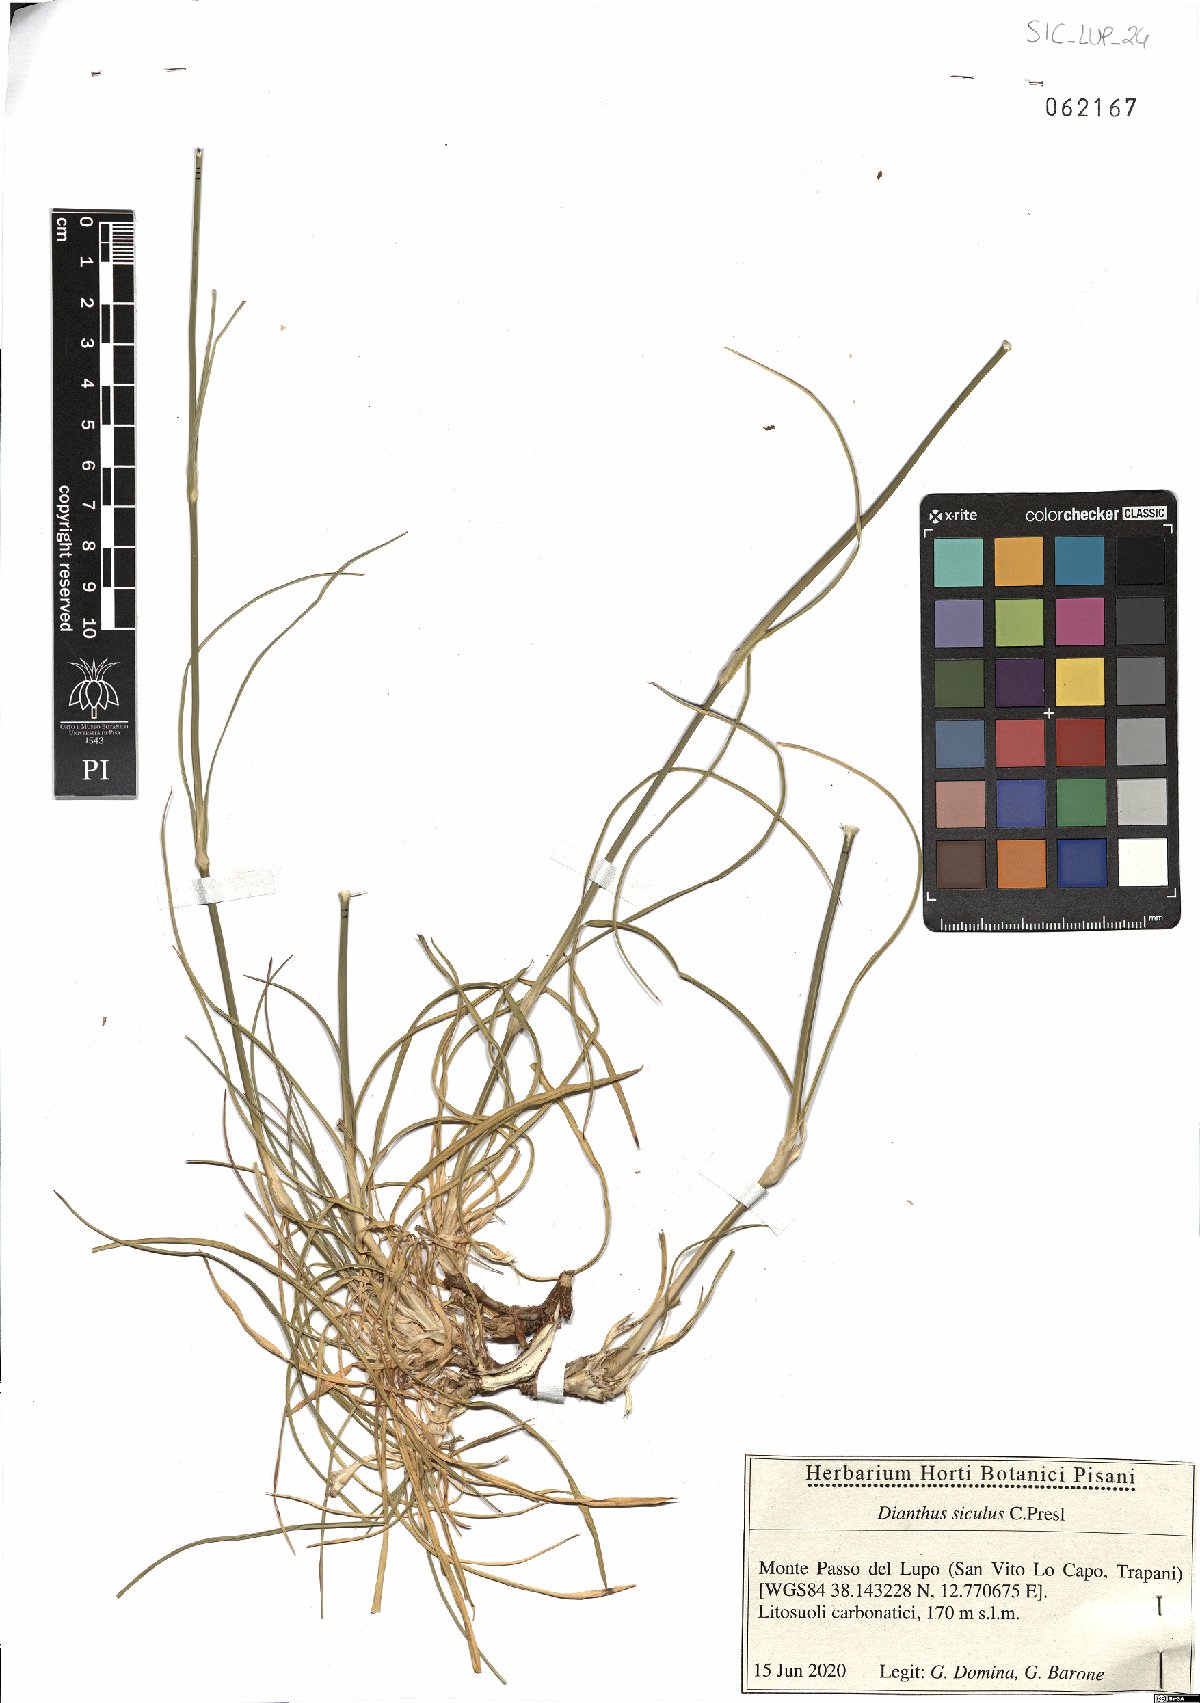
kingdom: Plantae
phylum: Tracheophyta
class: Magnoliopsida
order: Caryophyllales
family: Caryophyllaceae
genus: Dianthus
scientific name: Dianthus siculus
